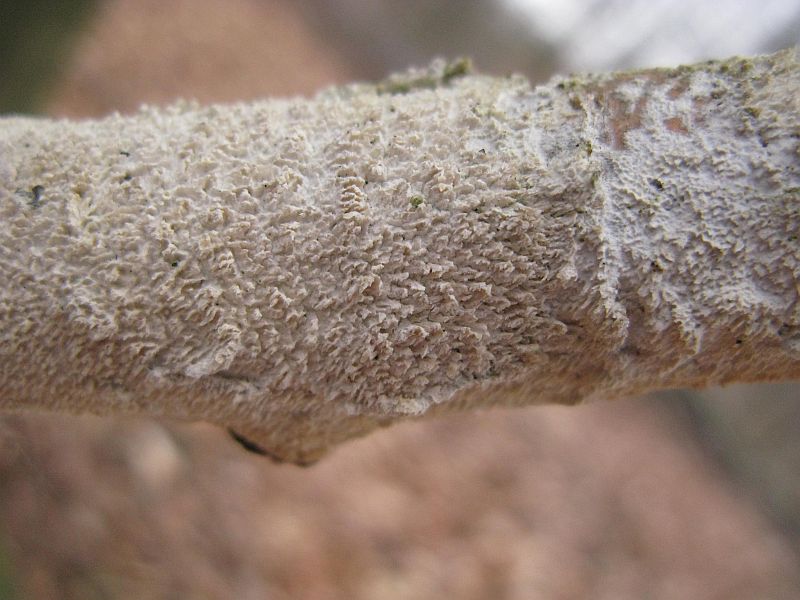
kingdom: Fungi
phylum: Basidiomycota
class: Agaricomycetes
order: Hymenochaetales
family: Schizoporaceae
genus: Schizopora
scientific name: Schizopora paradoxa
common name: hvid tandsvamp
